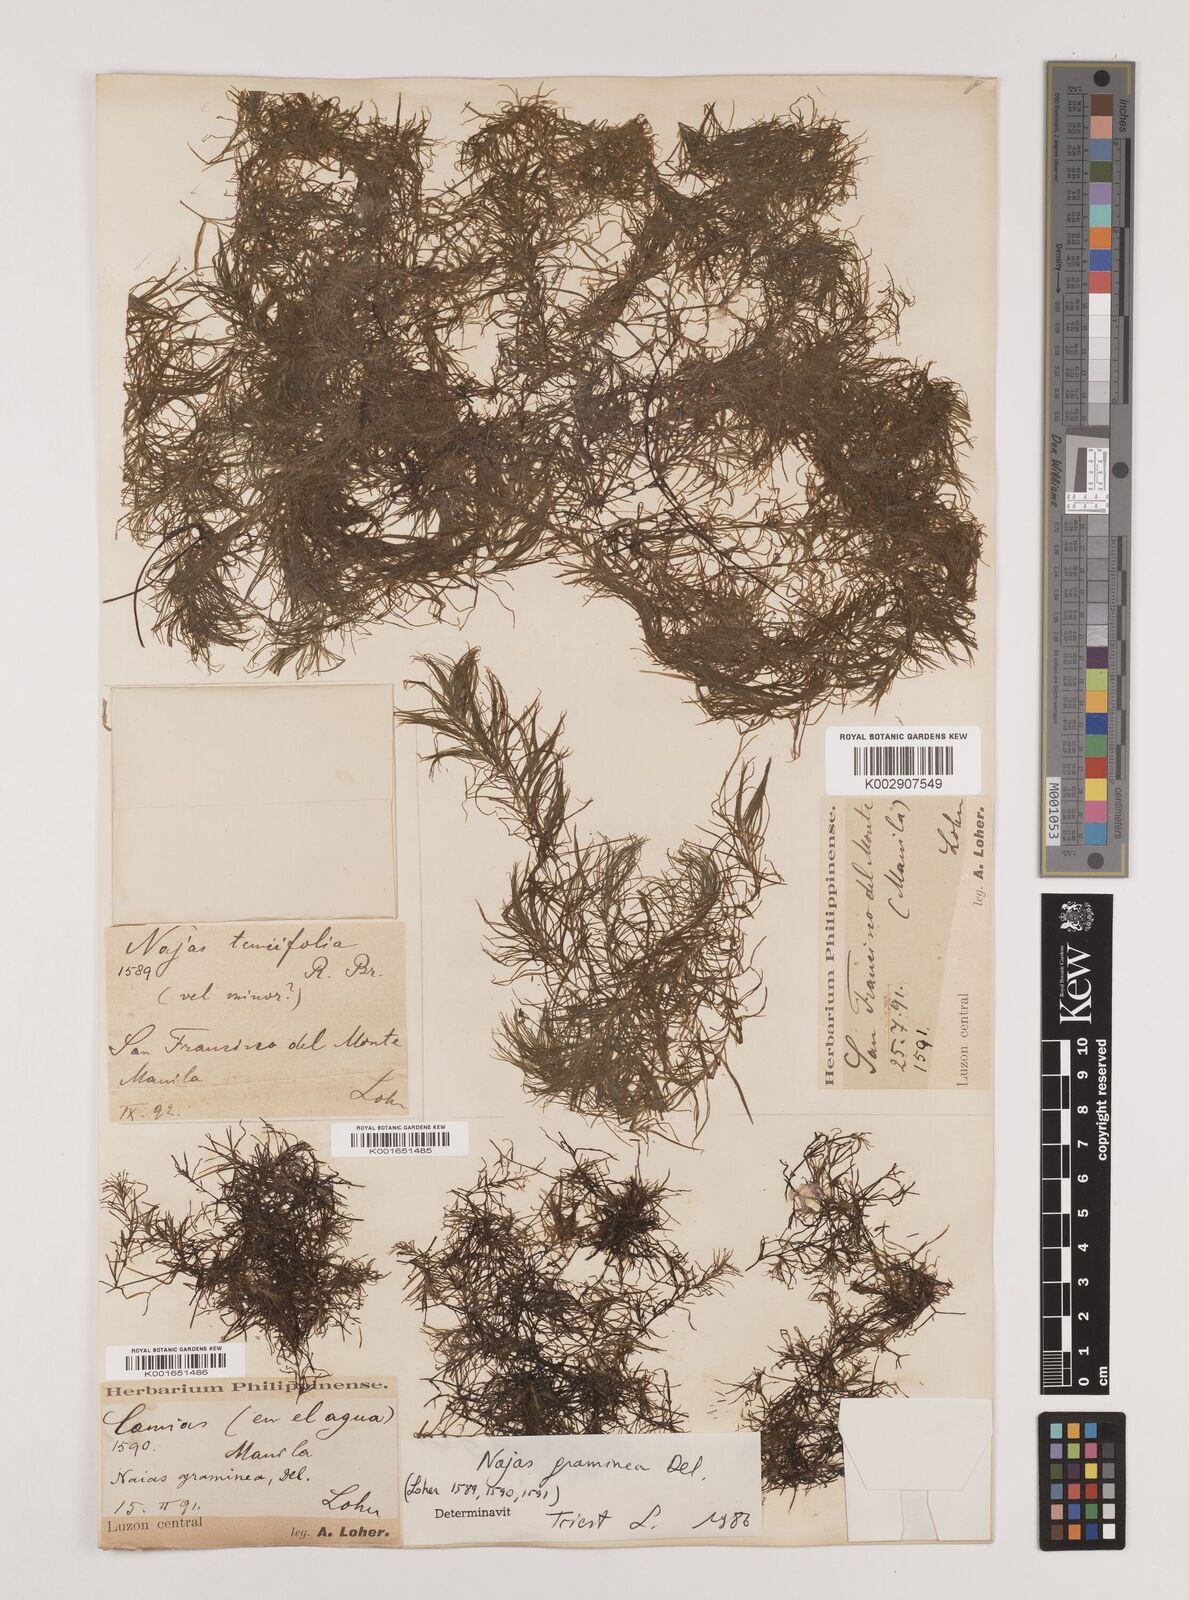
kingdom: Plantae
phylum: Tracheophyta
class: Liliopsida
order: Alismatales
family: Hydrocharitaceae
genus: Najas
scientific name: Najas graminea
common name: Ricefield waternymph
